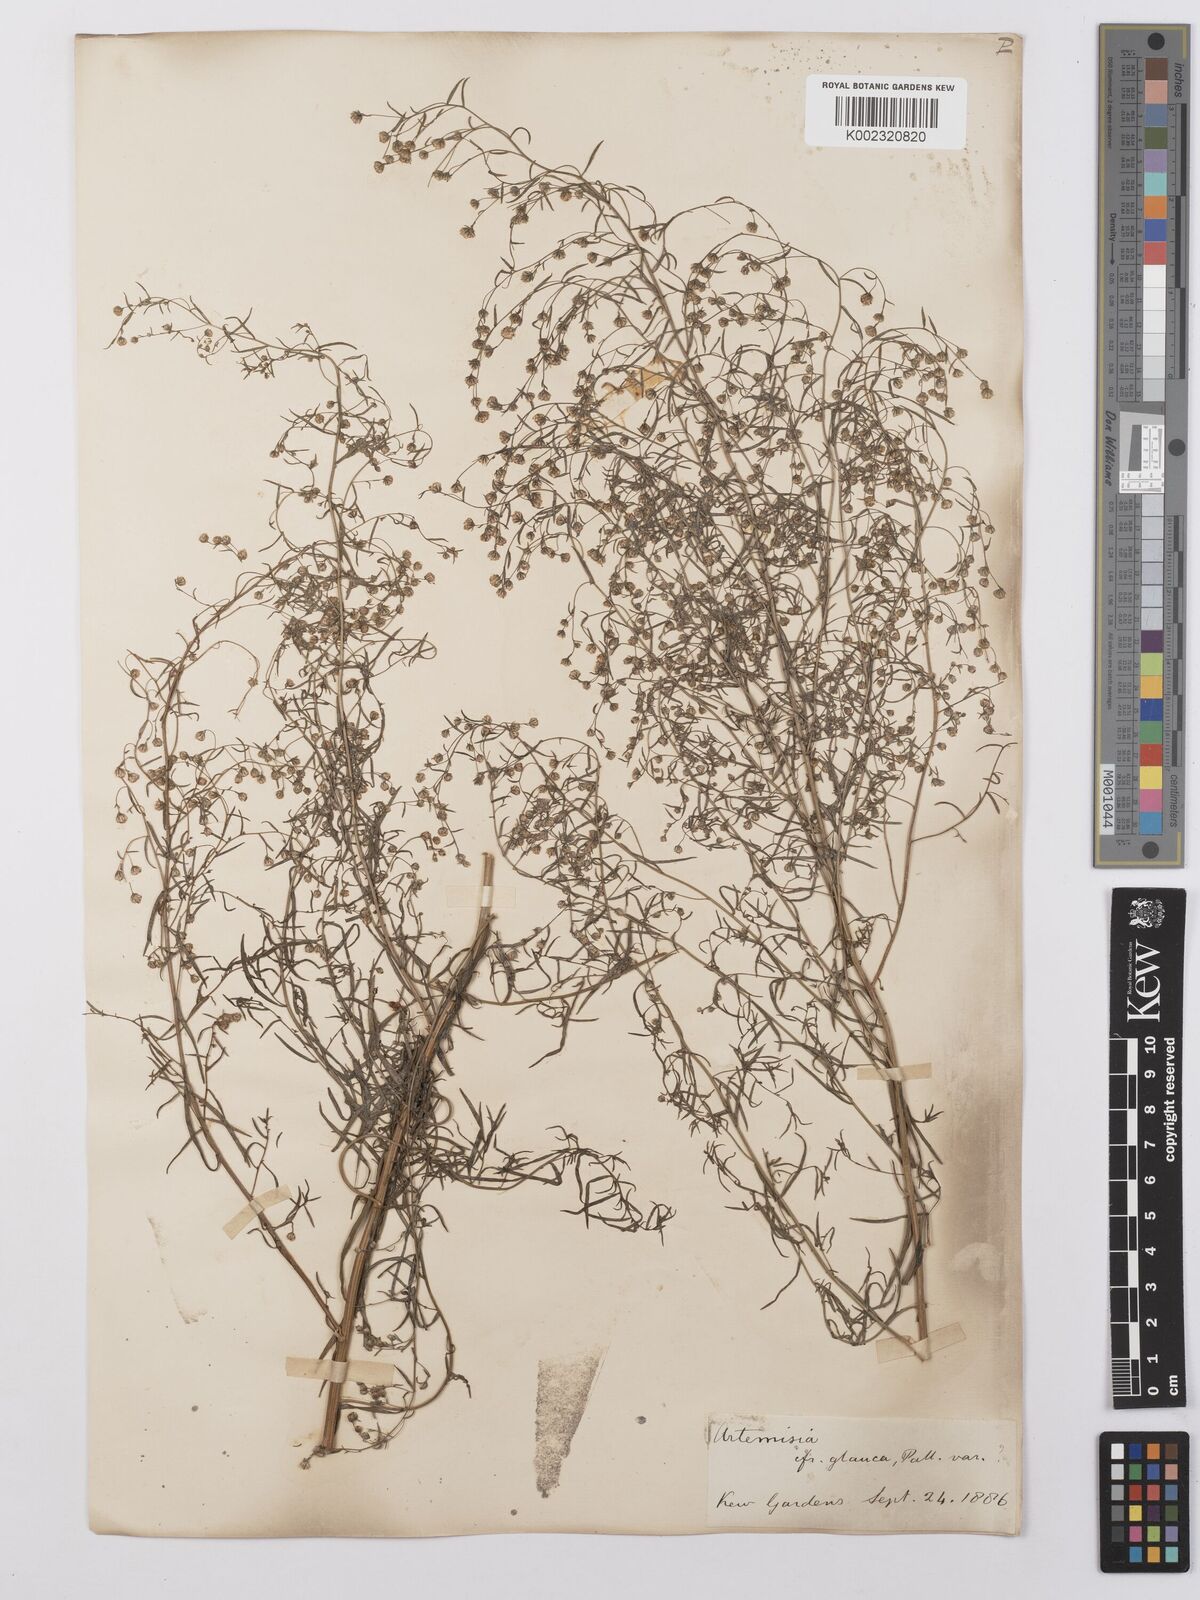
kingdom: Plantae
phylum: Tracheophyta
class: Magnoliopsida
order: Asterales
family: Asteraceae
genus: Artemisia
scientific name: Artemisia glauca
